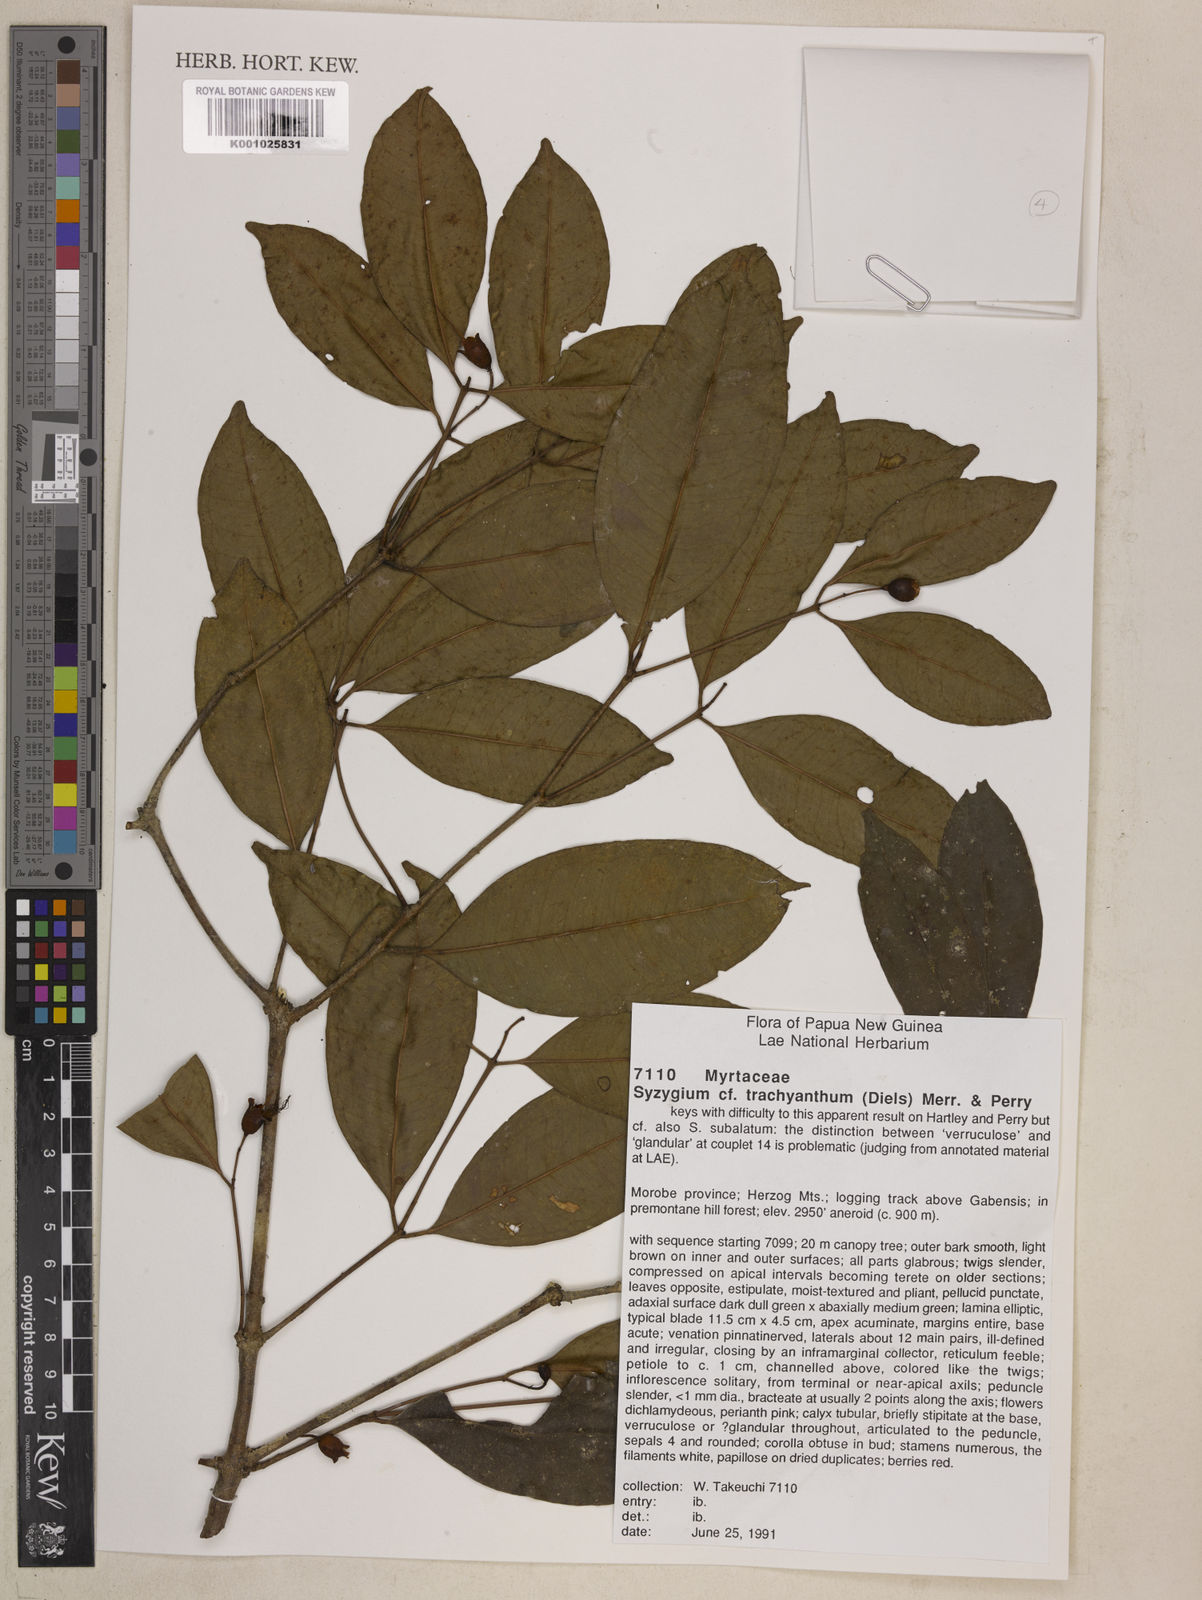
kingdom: Plantae
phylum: Tracheophyta
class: Magnoliopsida
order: Myrtales
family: Myrtaceae
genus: Syzygium
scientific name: Syzygium trachyanthum
